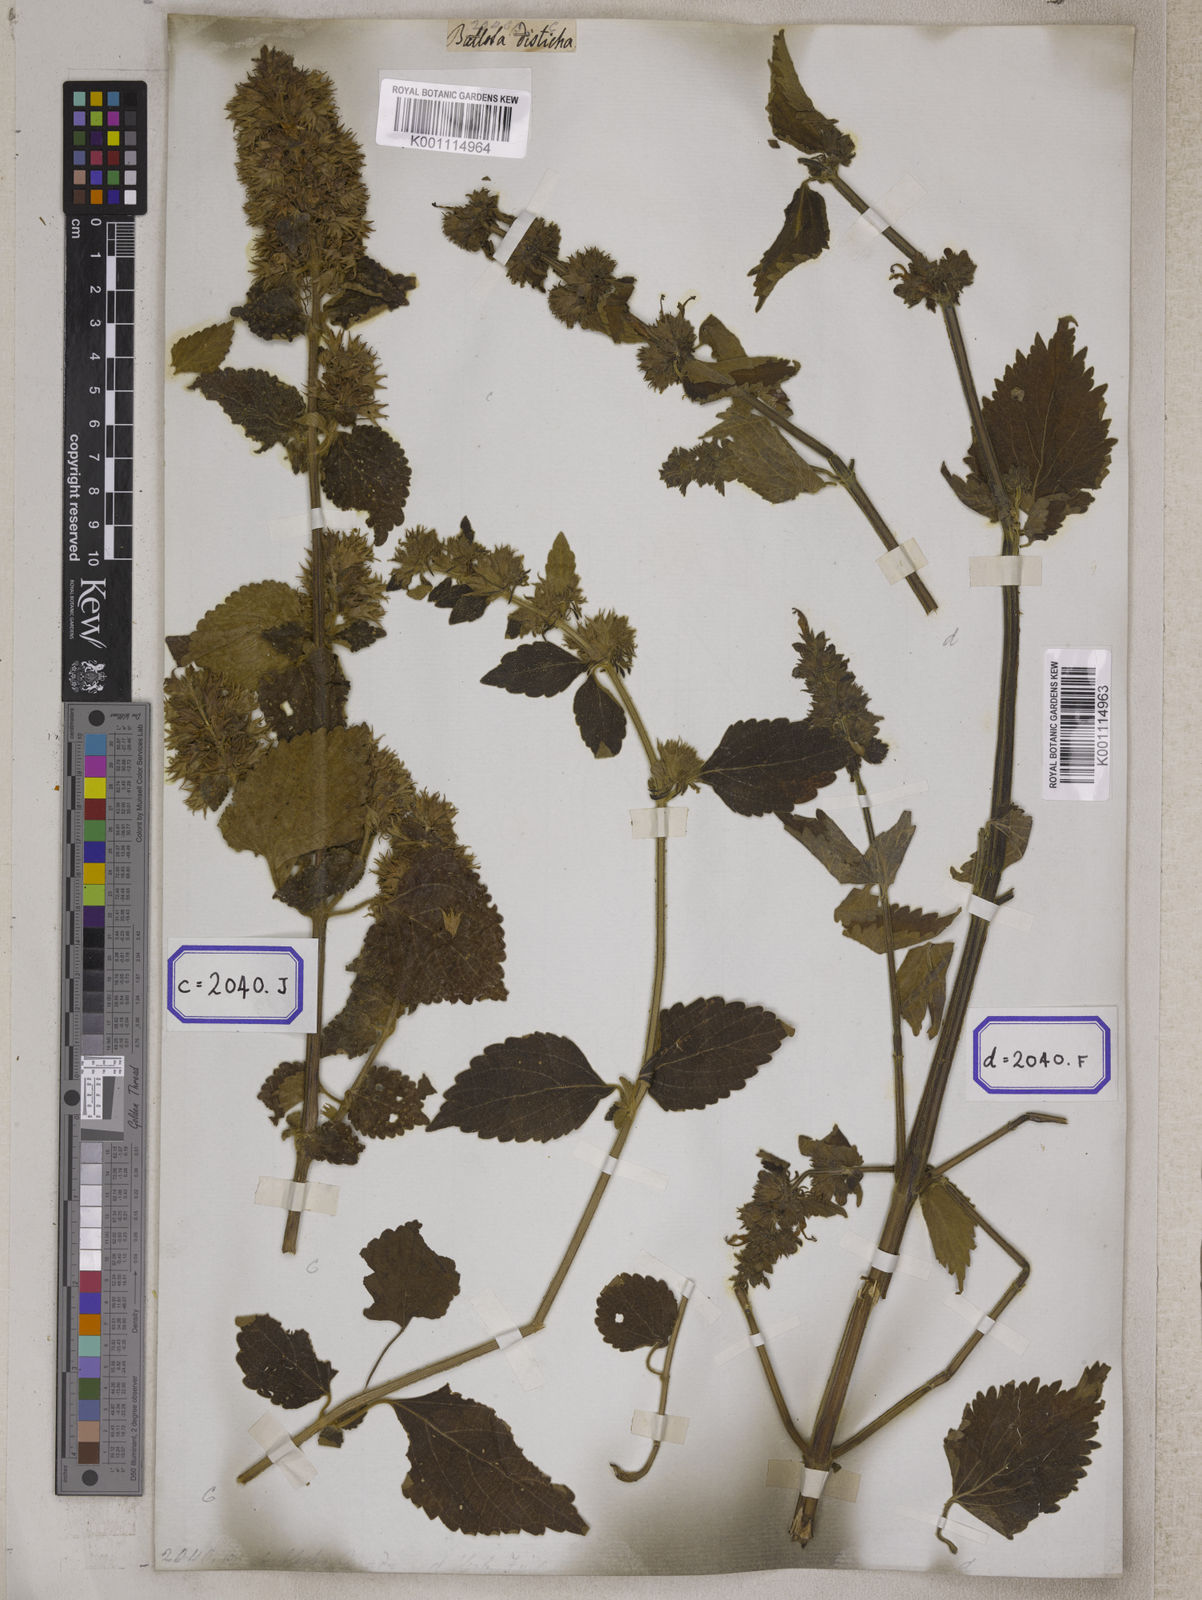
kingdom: Plantae
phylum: Tracheophyta
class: Magnoliopsida
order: Lamiales
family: Lamiaceae
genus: Anisomeles
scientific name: Anisomeles
